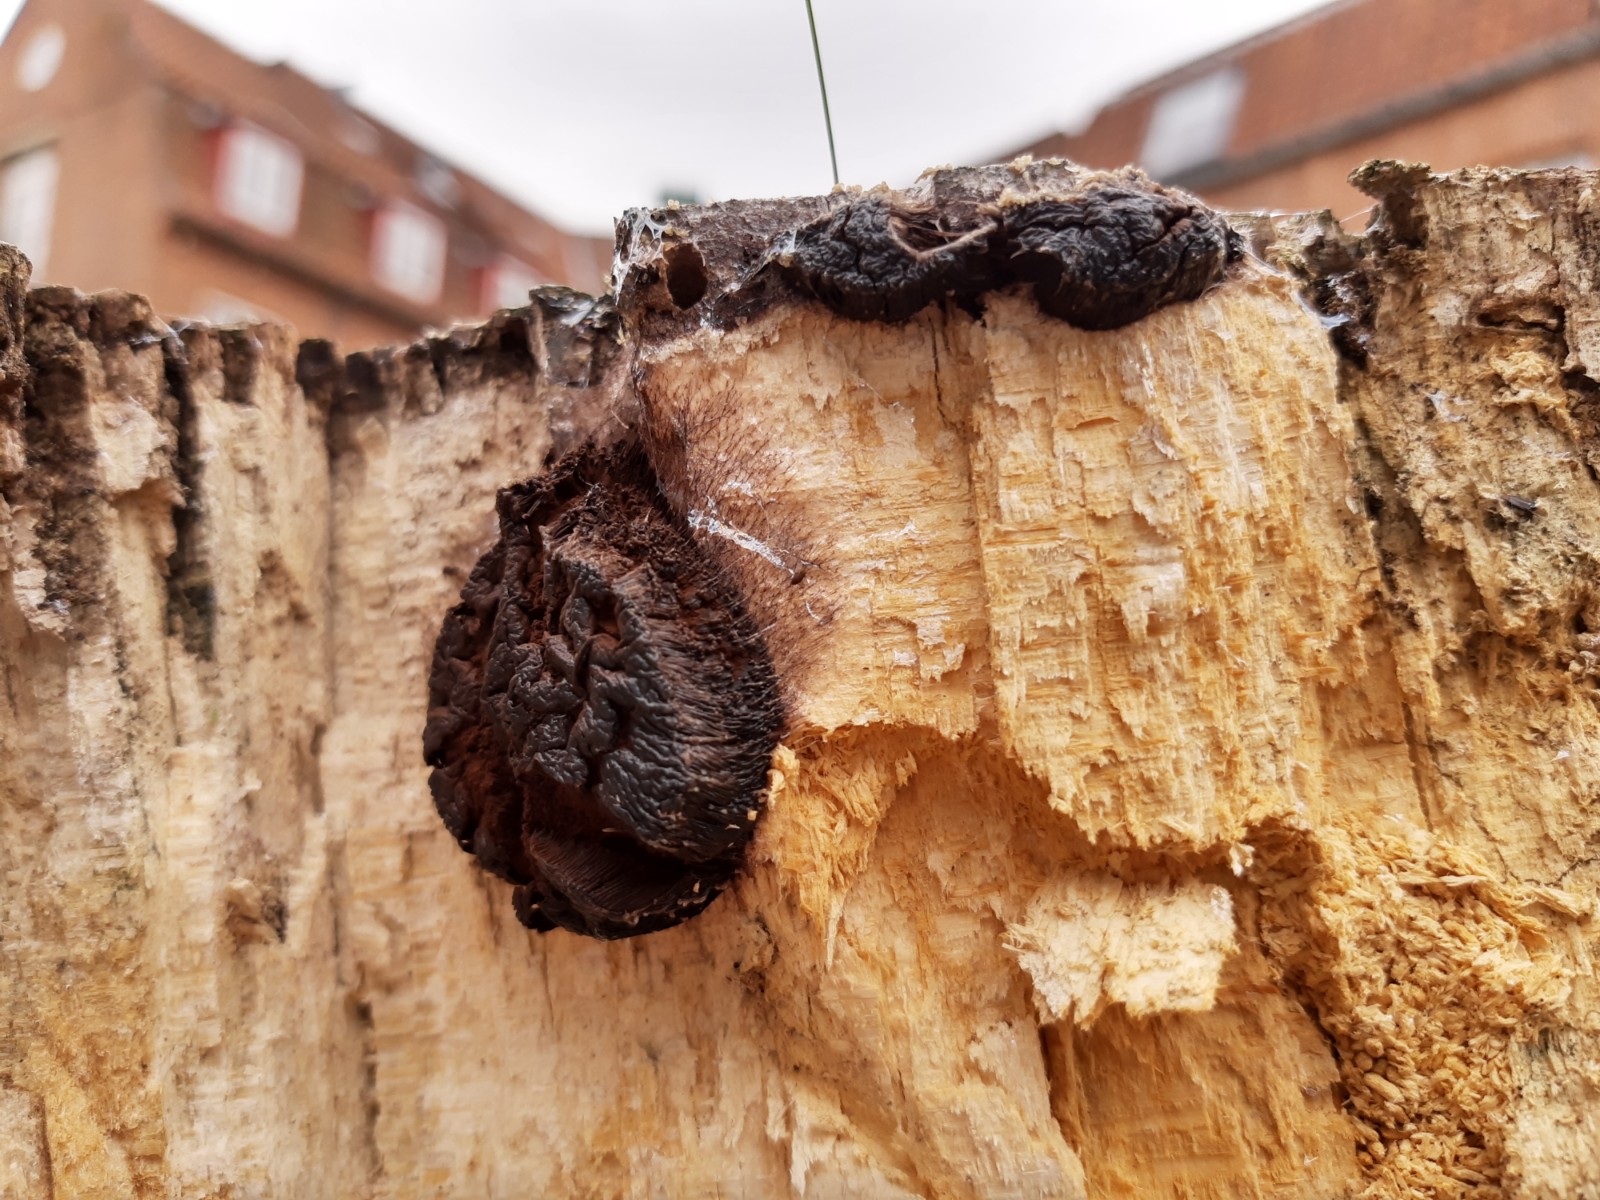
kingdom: Protozoa
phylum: Mycetozoa
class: Myxomycetes
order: Stemonitidales
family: Stemonitidaceae
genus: Symphytocarpus
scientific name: Symphytocarpus flaccidus
